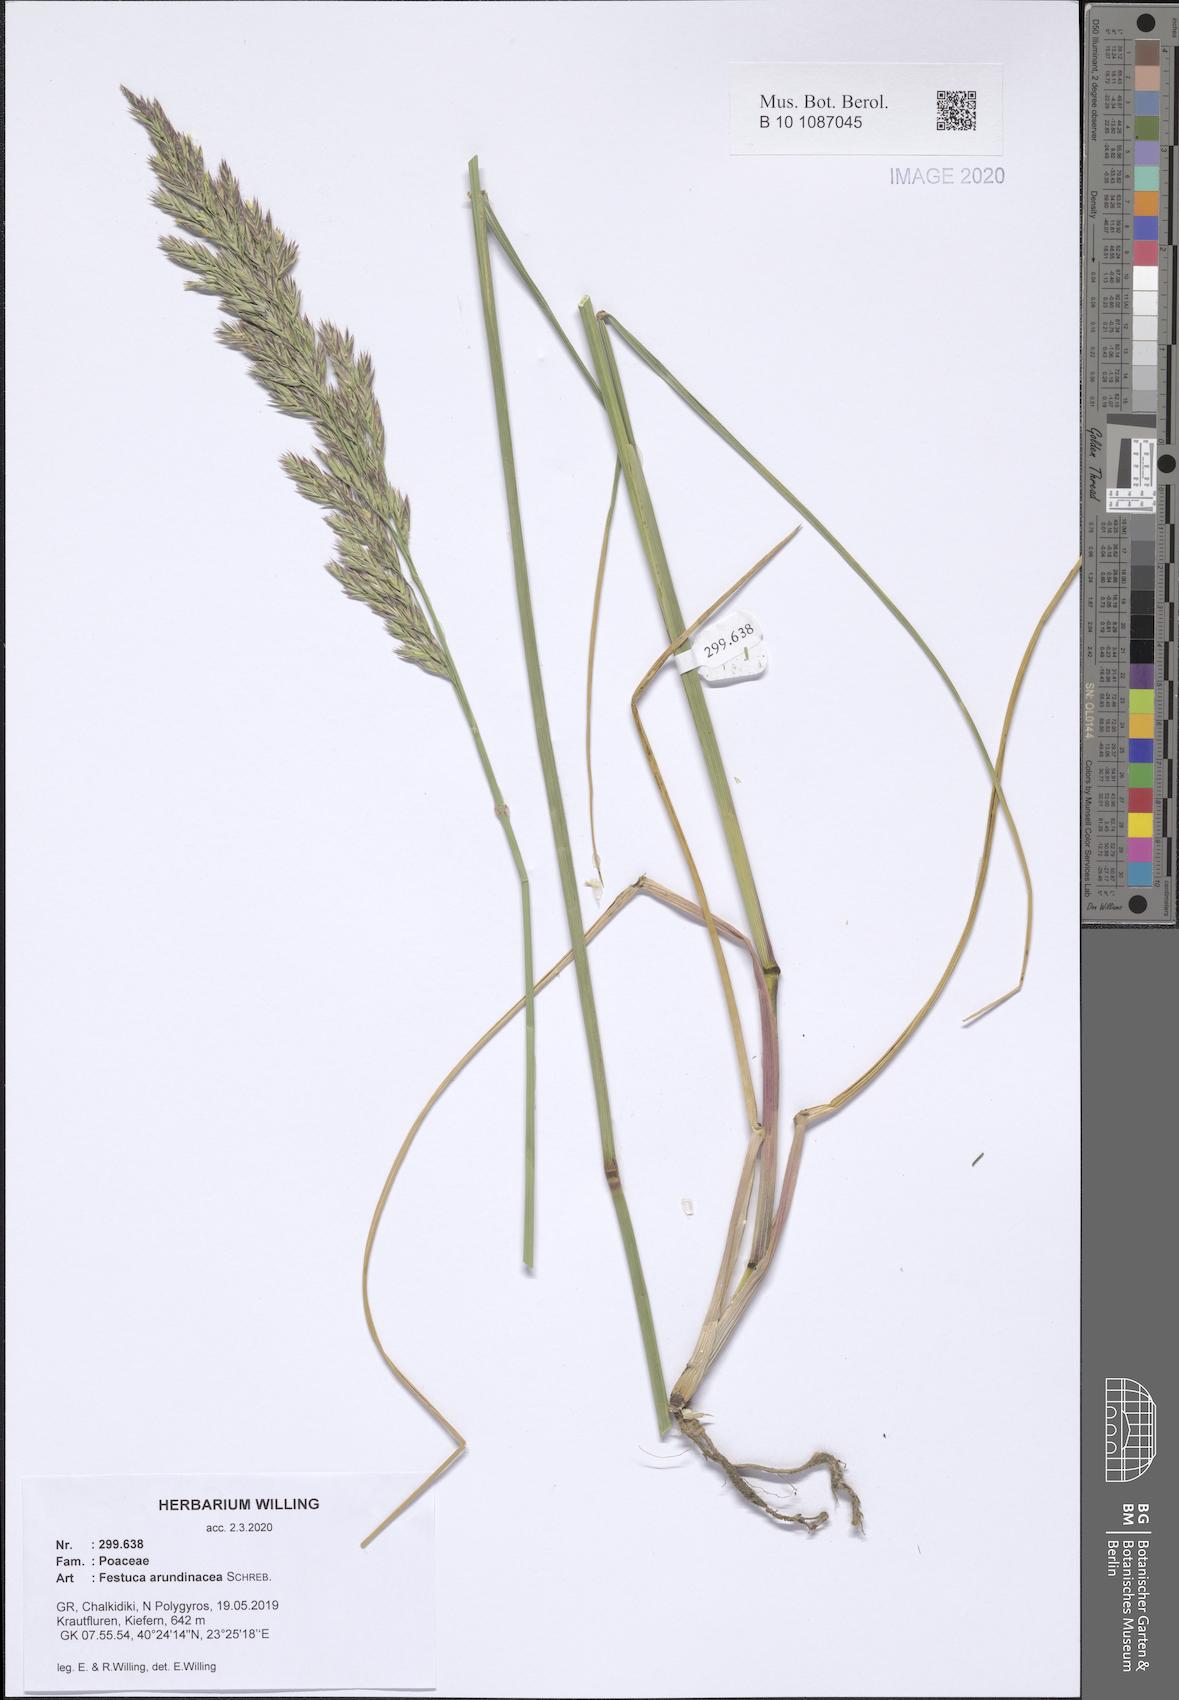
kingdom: Plantae
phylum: Tracheophyta
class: Liliopsida
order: Poales
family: Poaceae
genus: Lolium
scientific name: Lolium arundinaceum
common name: Reed fescue
